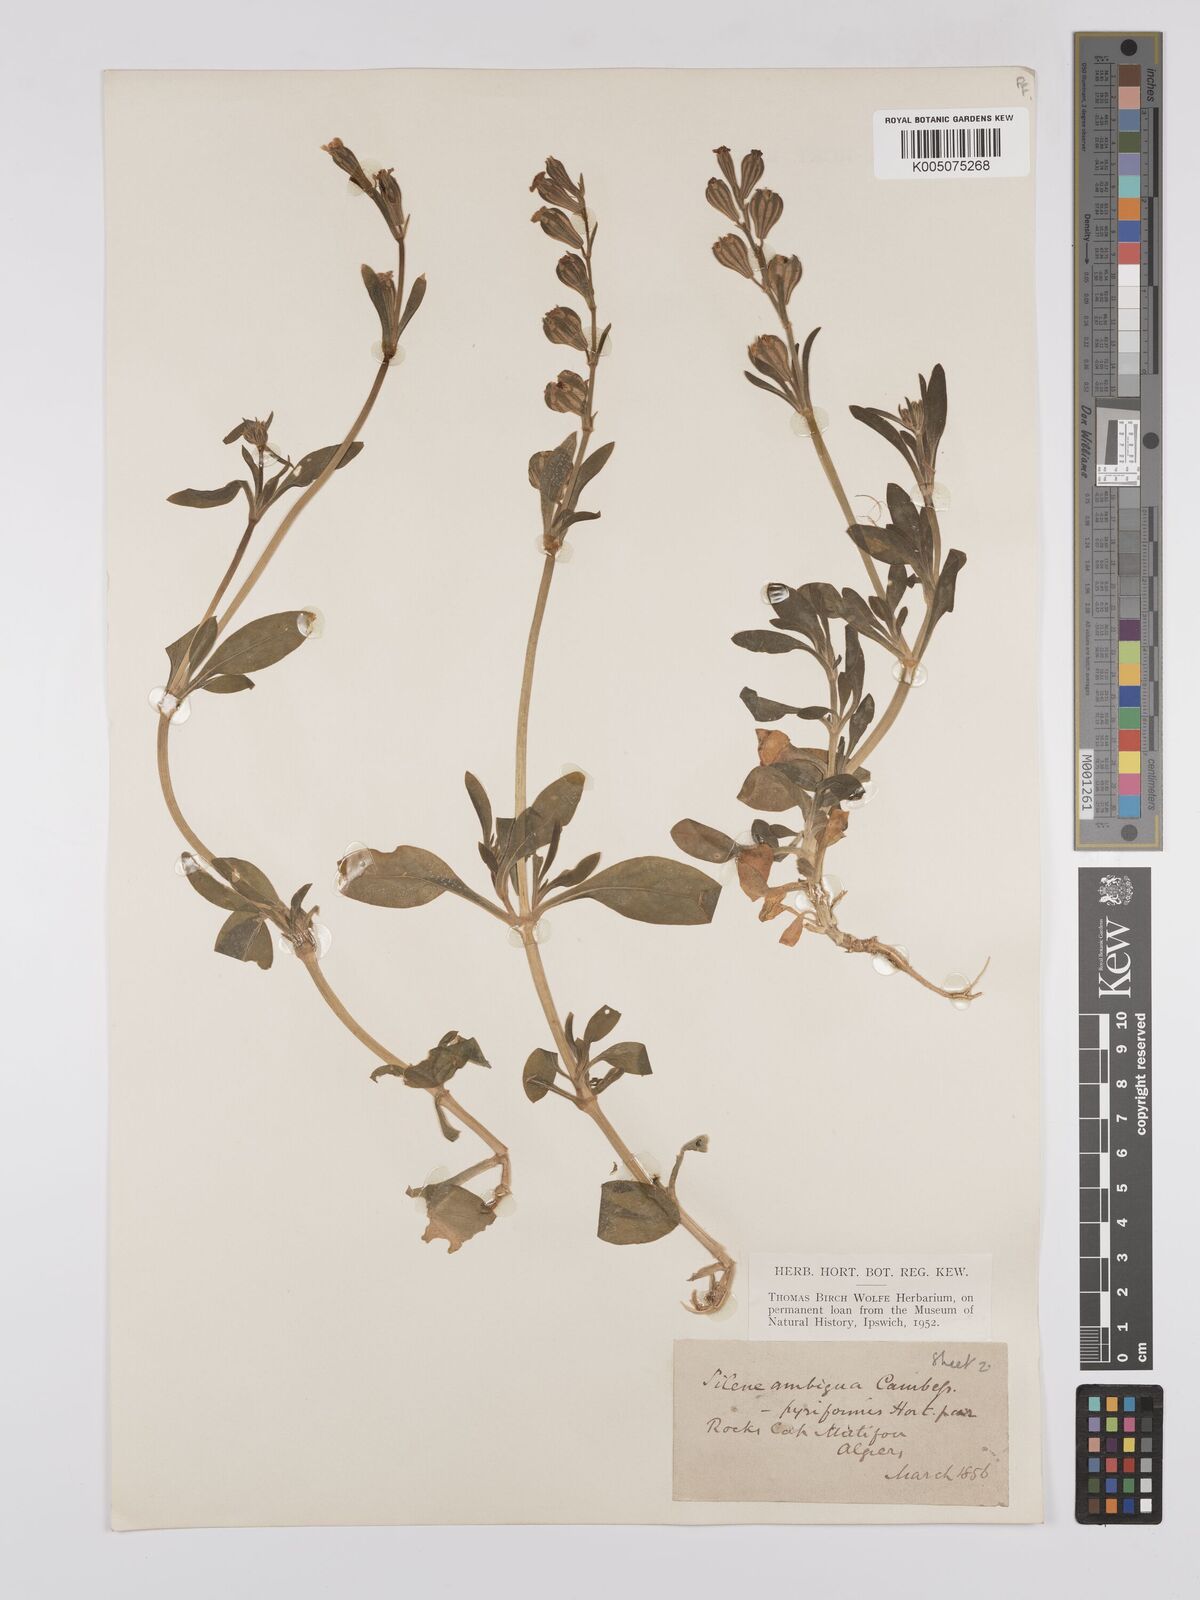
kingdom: Plantae
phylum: Tracheophyta
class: Magnoliopsida
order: Caryophyllales
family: Caryophyllaceae
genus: Silene
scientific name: Silene secundiflora
